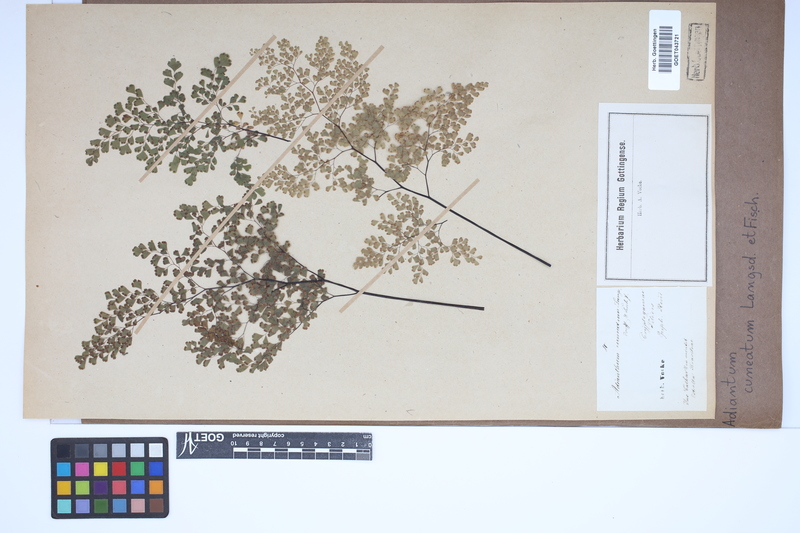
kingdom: Plantae
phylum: Tracheophyta
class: Polypodiopsida
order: Polypodiales
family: Pteridaceae
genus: Adiantum
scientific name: Adiantum raddianum
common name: Delta maidenhair fern
